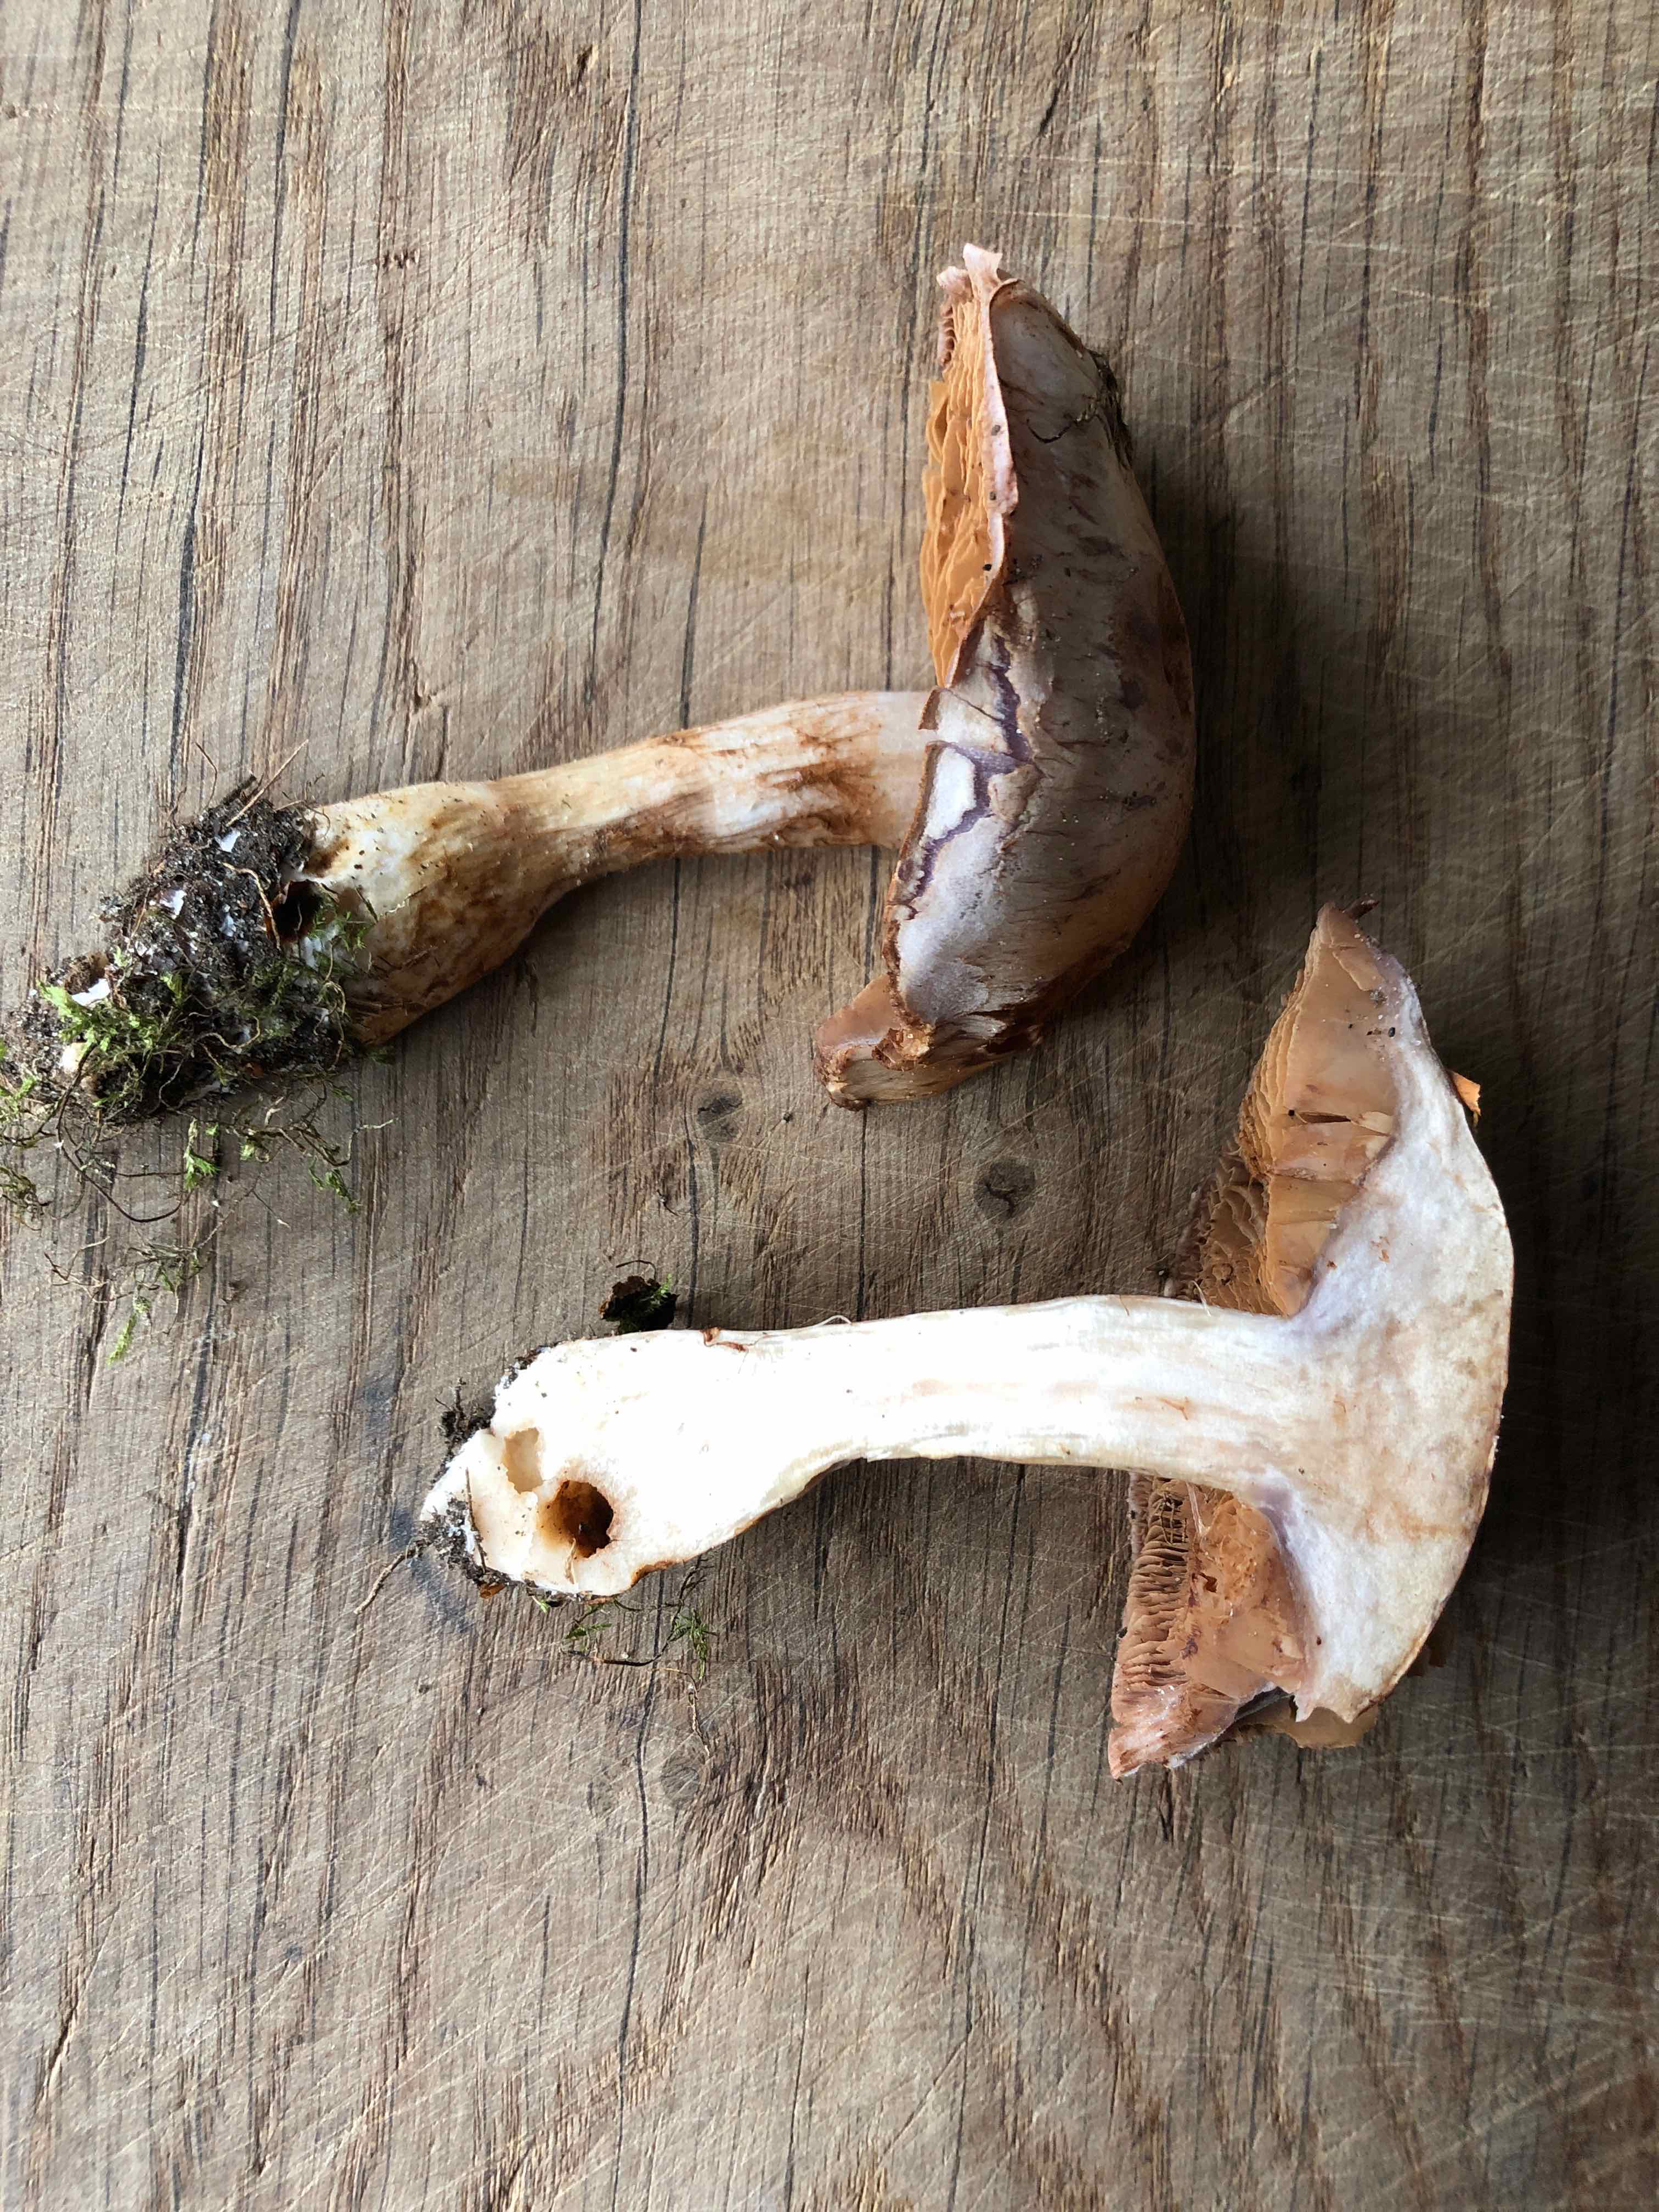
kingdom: Fungi
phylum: Basidiomycota
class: Agaricomycetes
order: Agaricales
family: Cortinariaceae
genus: Cortinarius
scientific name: Cortinarius largus
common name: violetrandet slørhat
